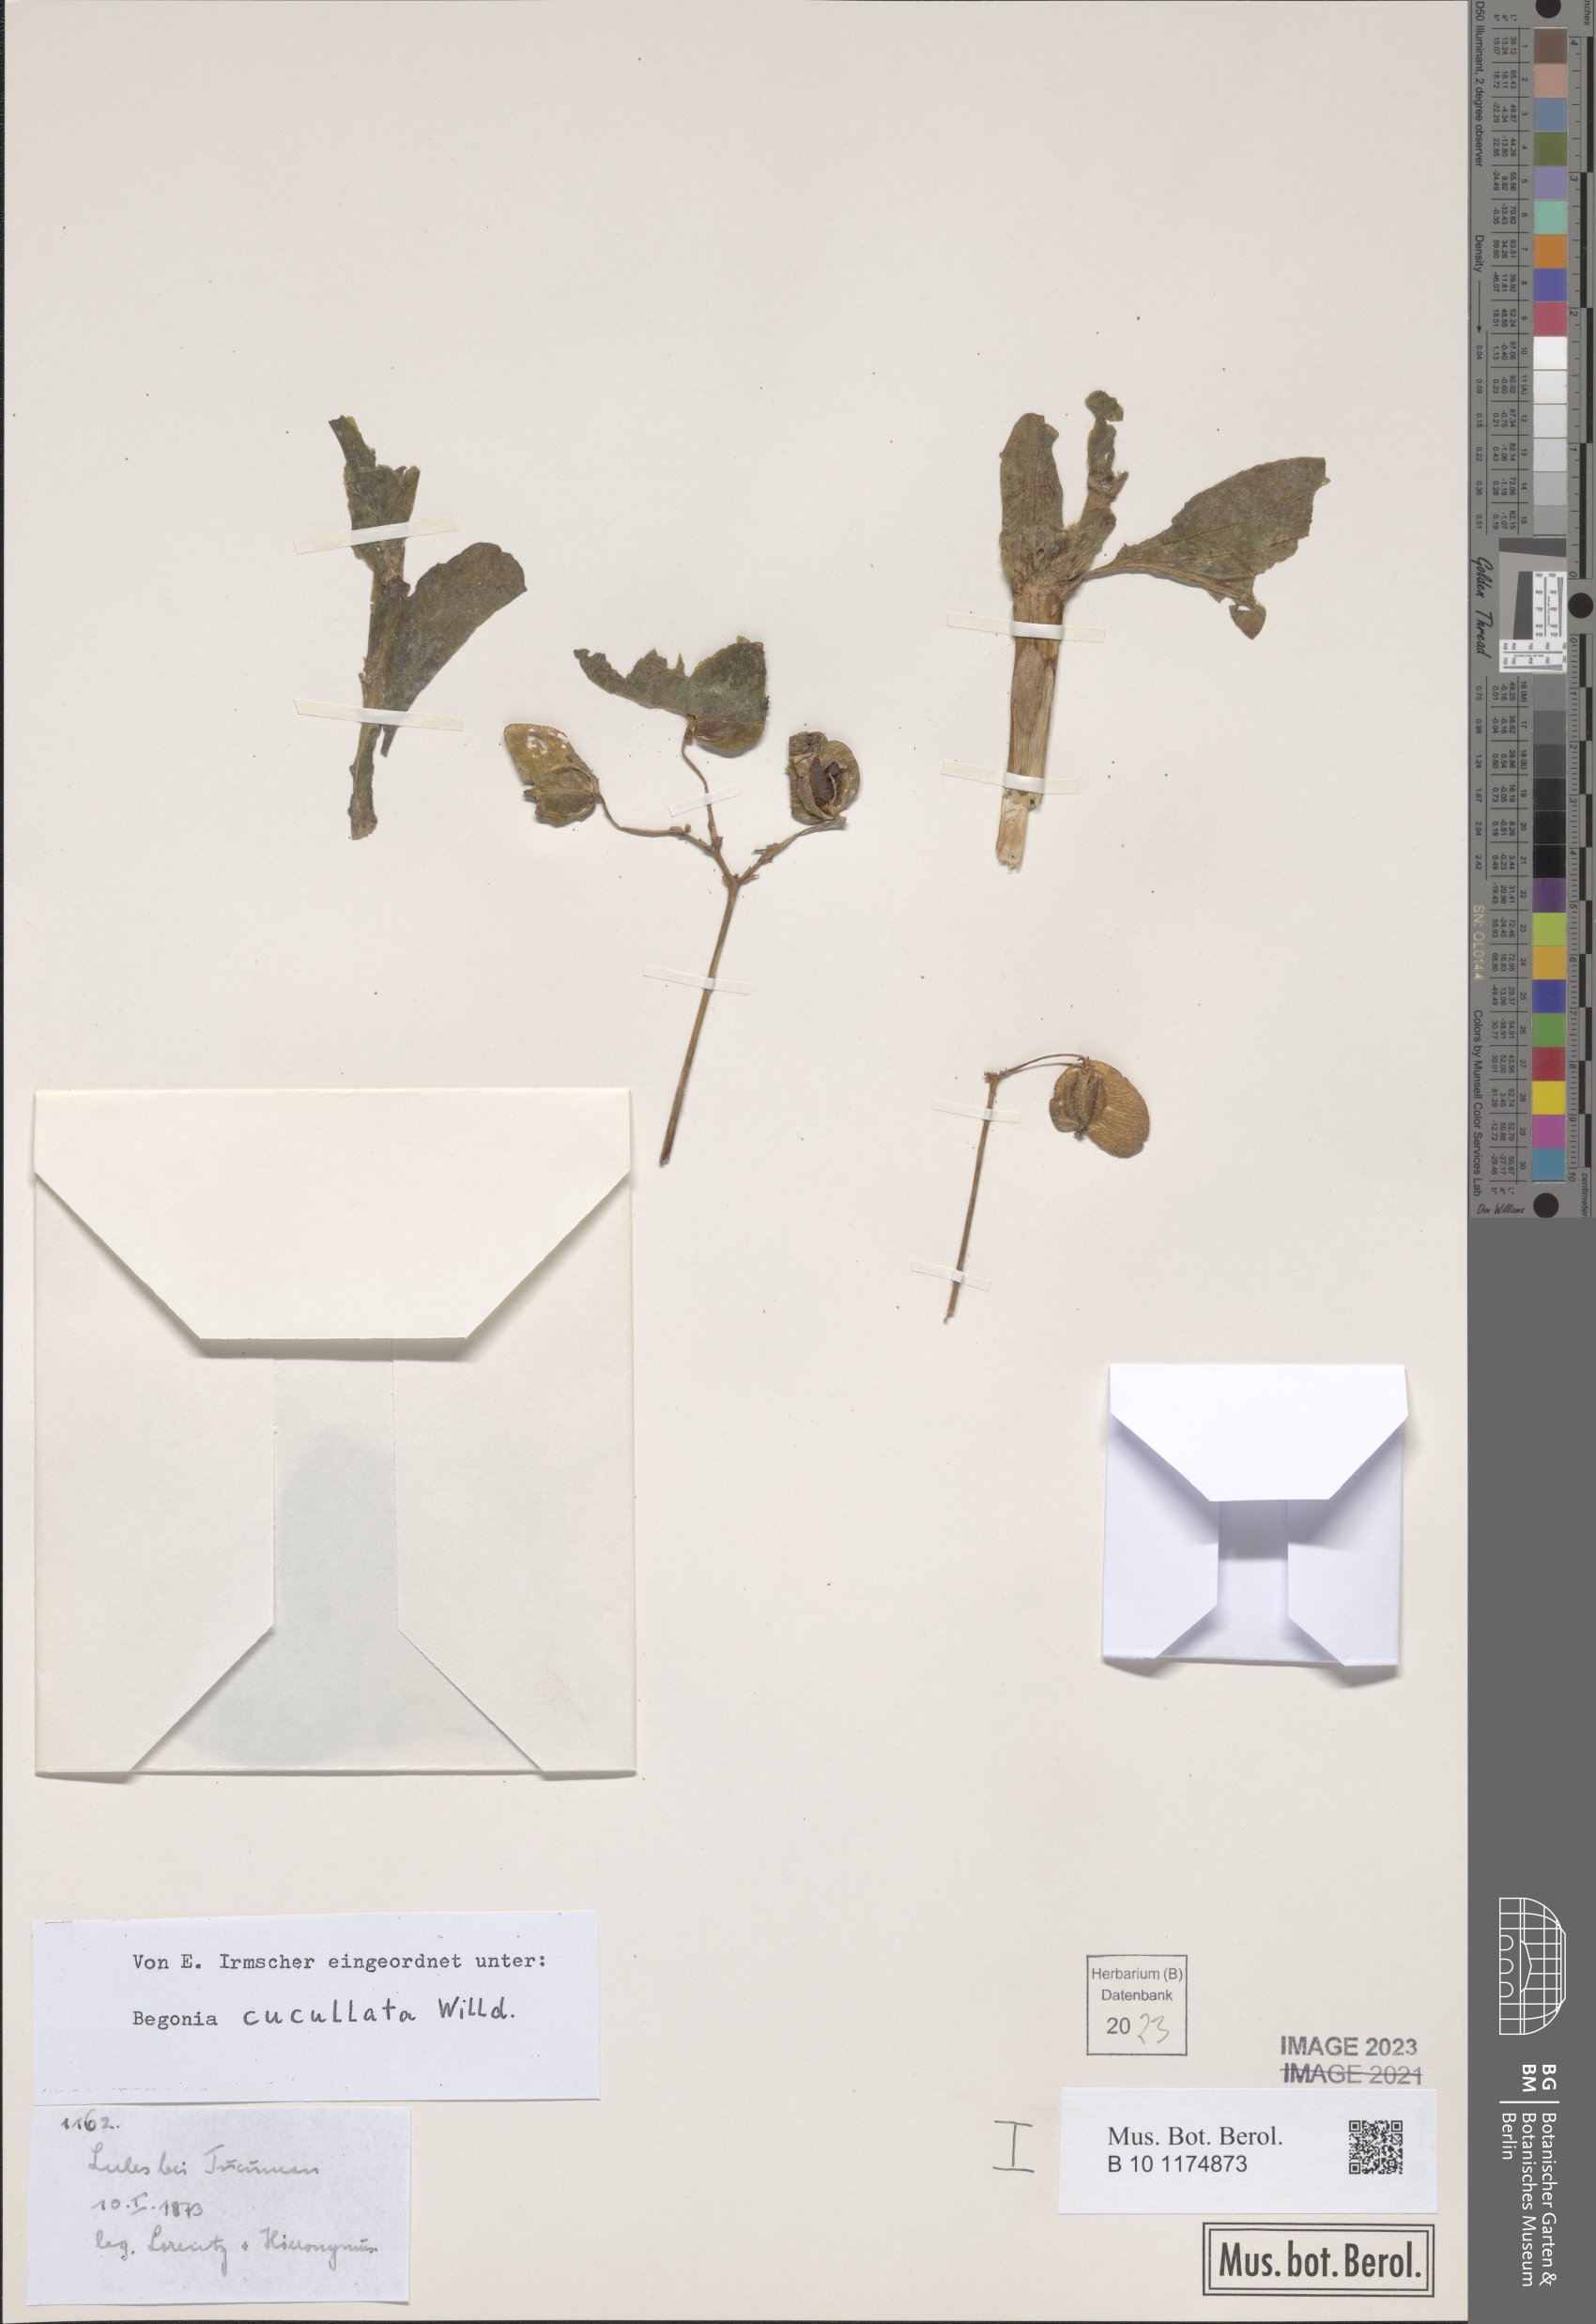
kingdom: Plantae
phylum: Tracheophyta
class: Magnoliopsida
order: Cucurbitales
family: Begoniaceae
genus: Begonia
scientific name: Begonia cucullata
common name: Clubbed begonia
